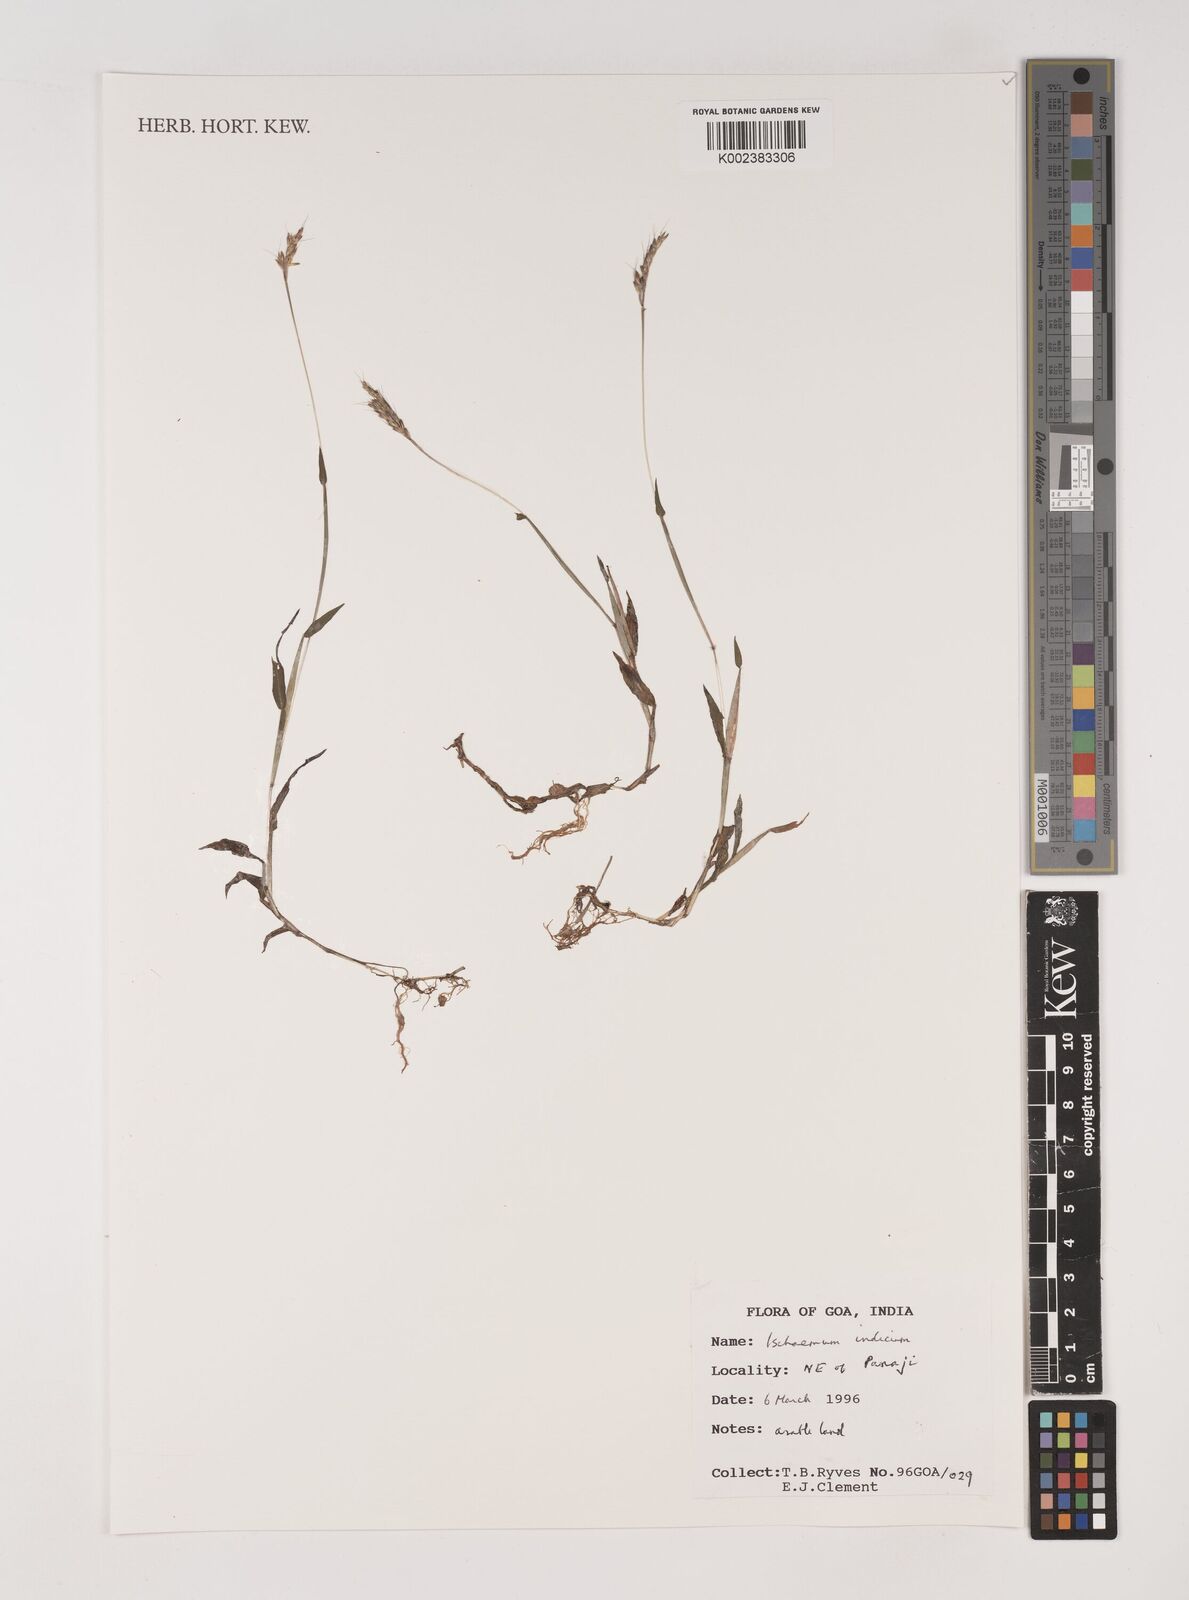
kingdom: Plantae
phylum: Tracheophyta
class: Liliopsida
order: Poales
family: Poaceae
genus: Polytrias
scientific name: Polytrias indica
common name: Indian murainagrass
